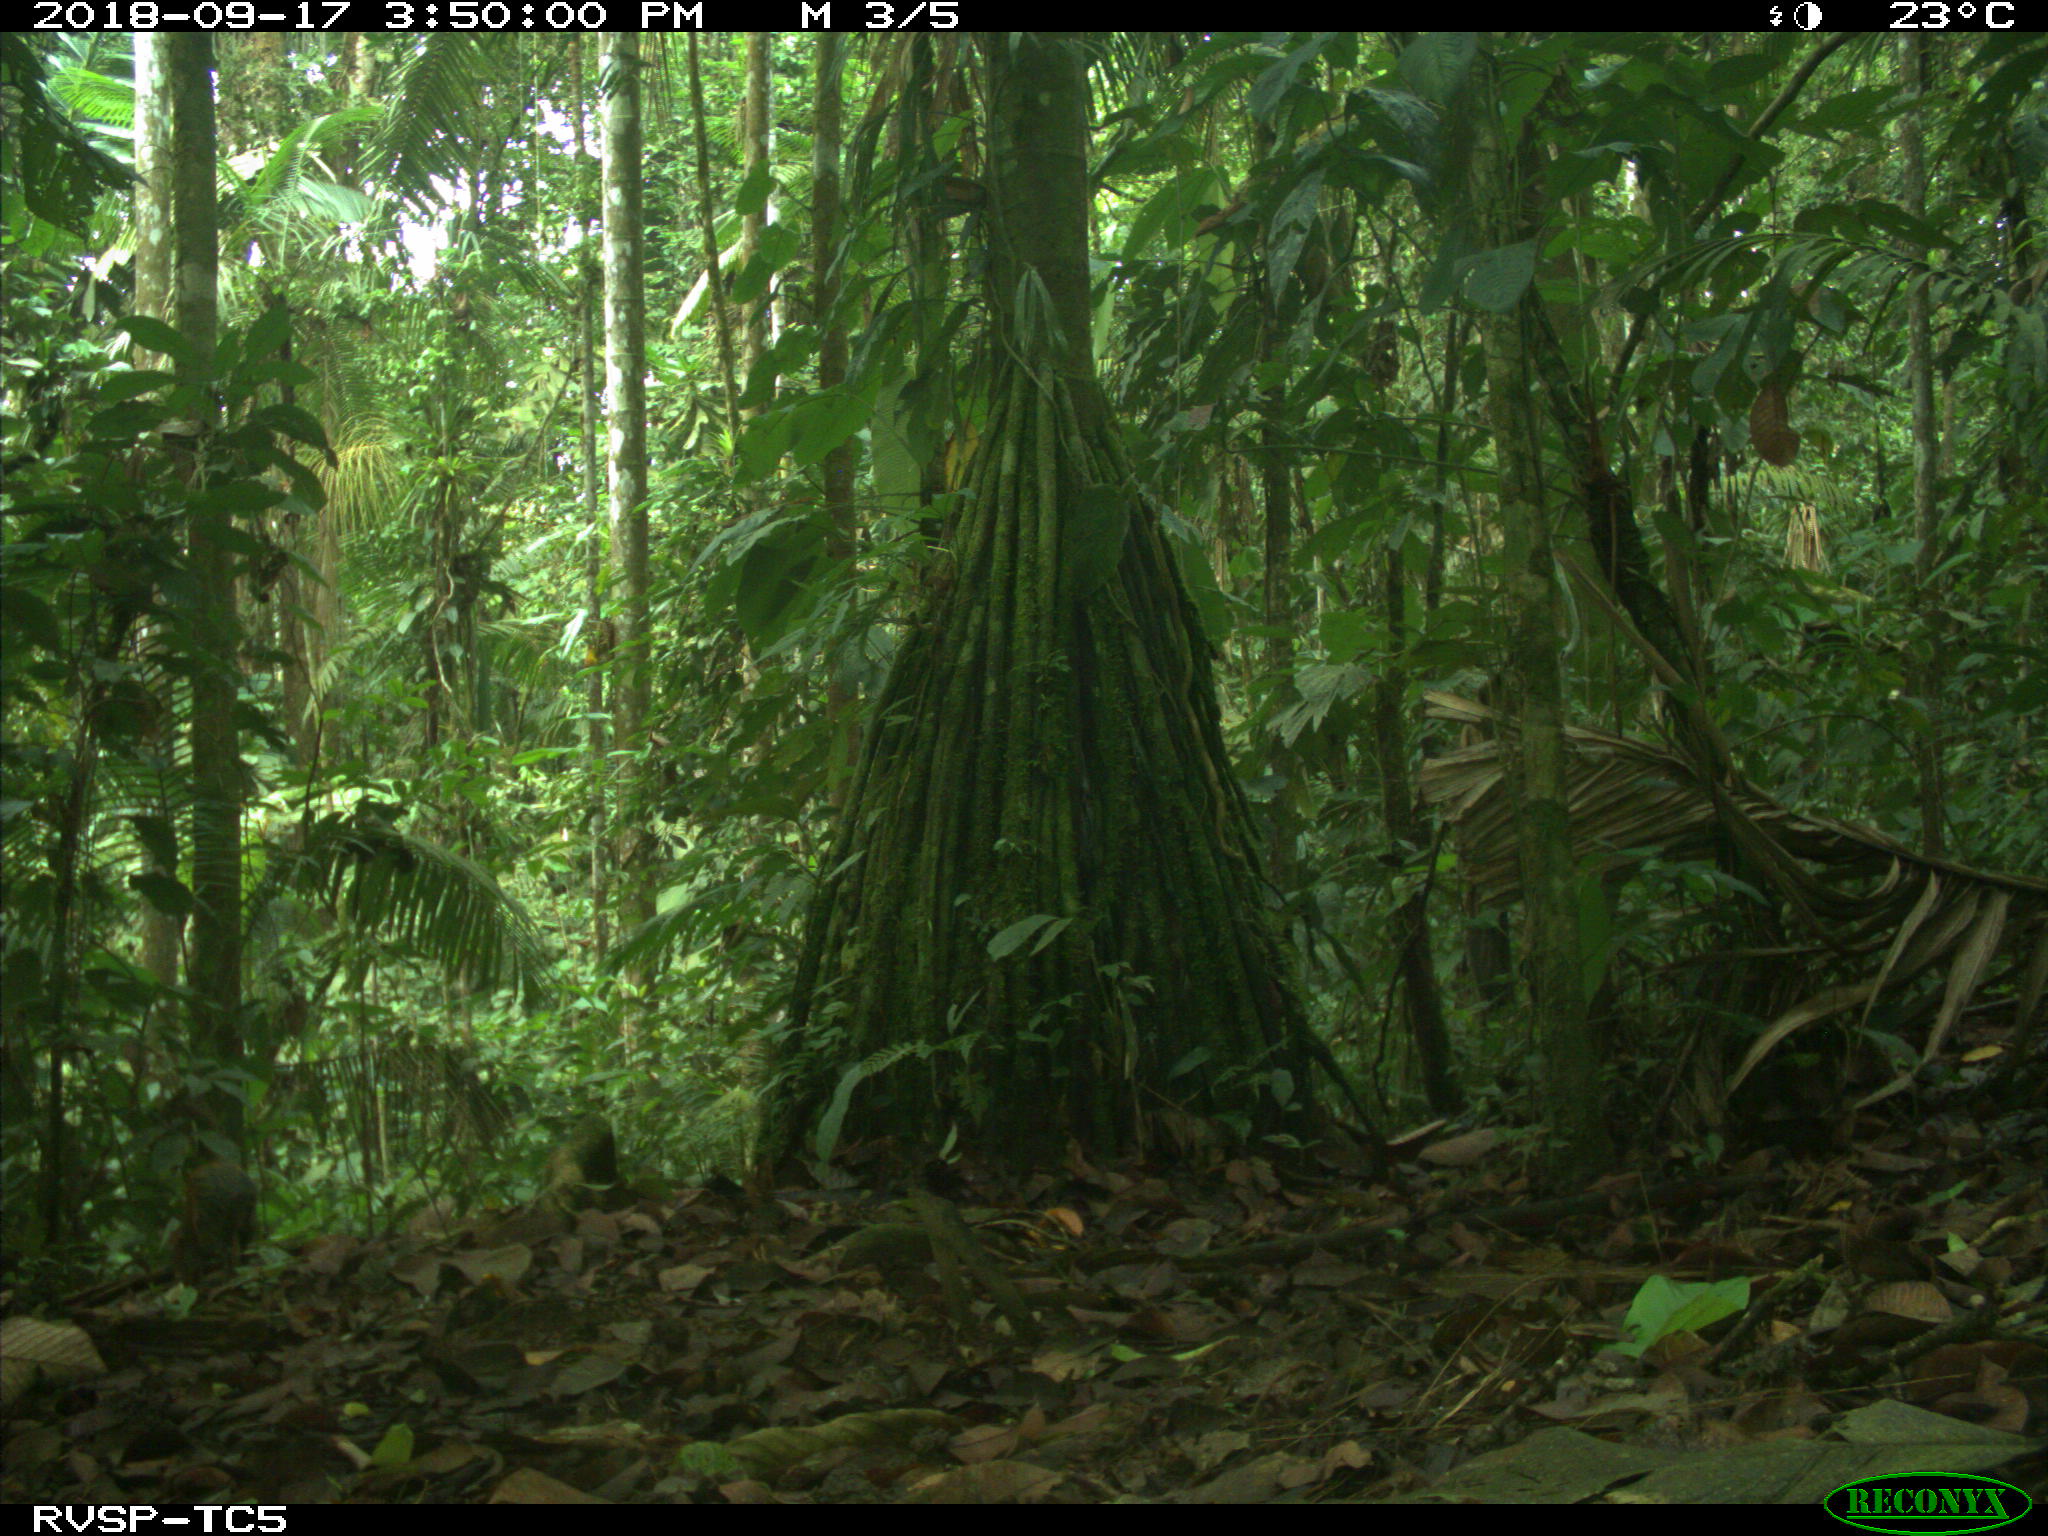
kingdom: Animalia
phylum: Chordata
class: Mammalia
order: Rodentia
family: Dasyproctidae
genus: Dasyprocta
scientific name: Dasyprocta punctata
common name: Central american agouti
